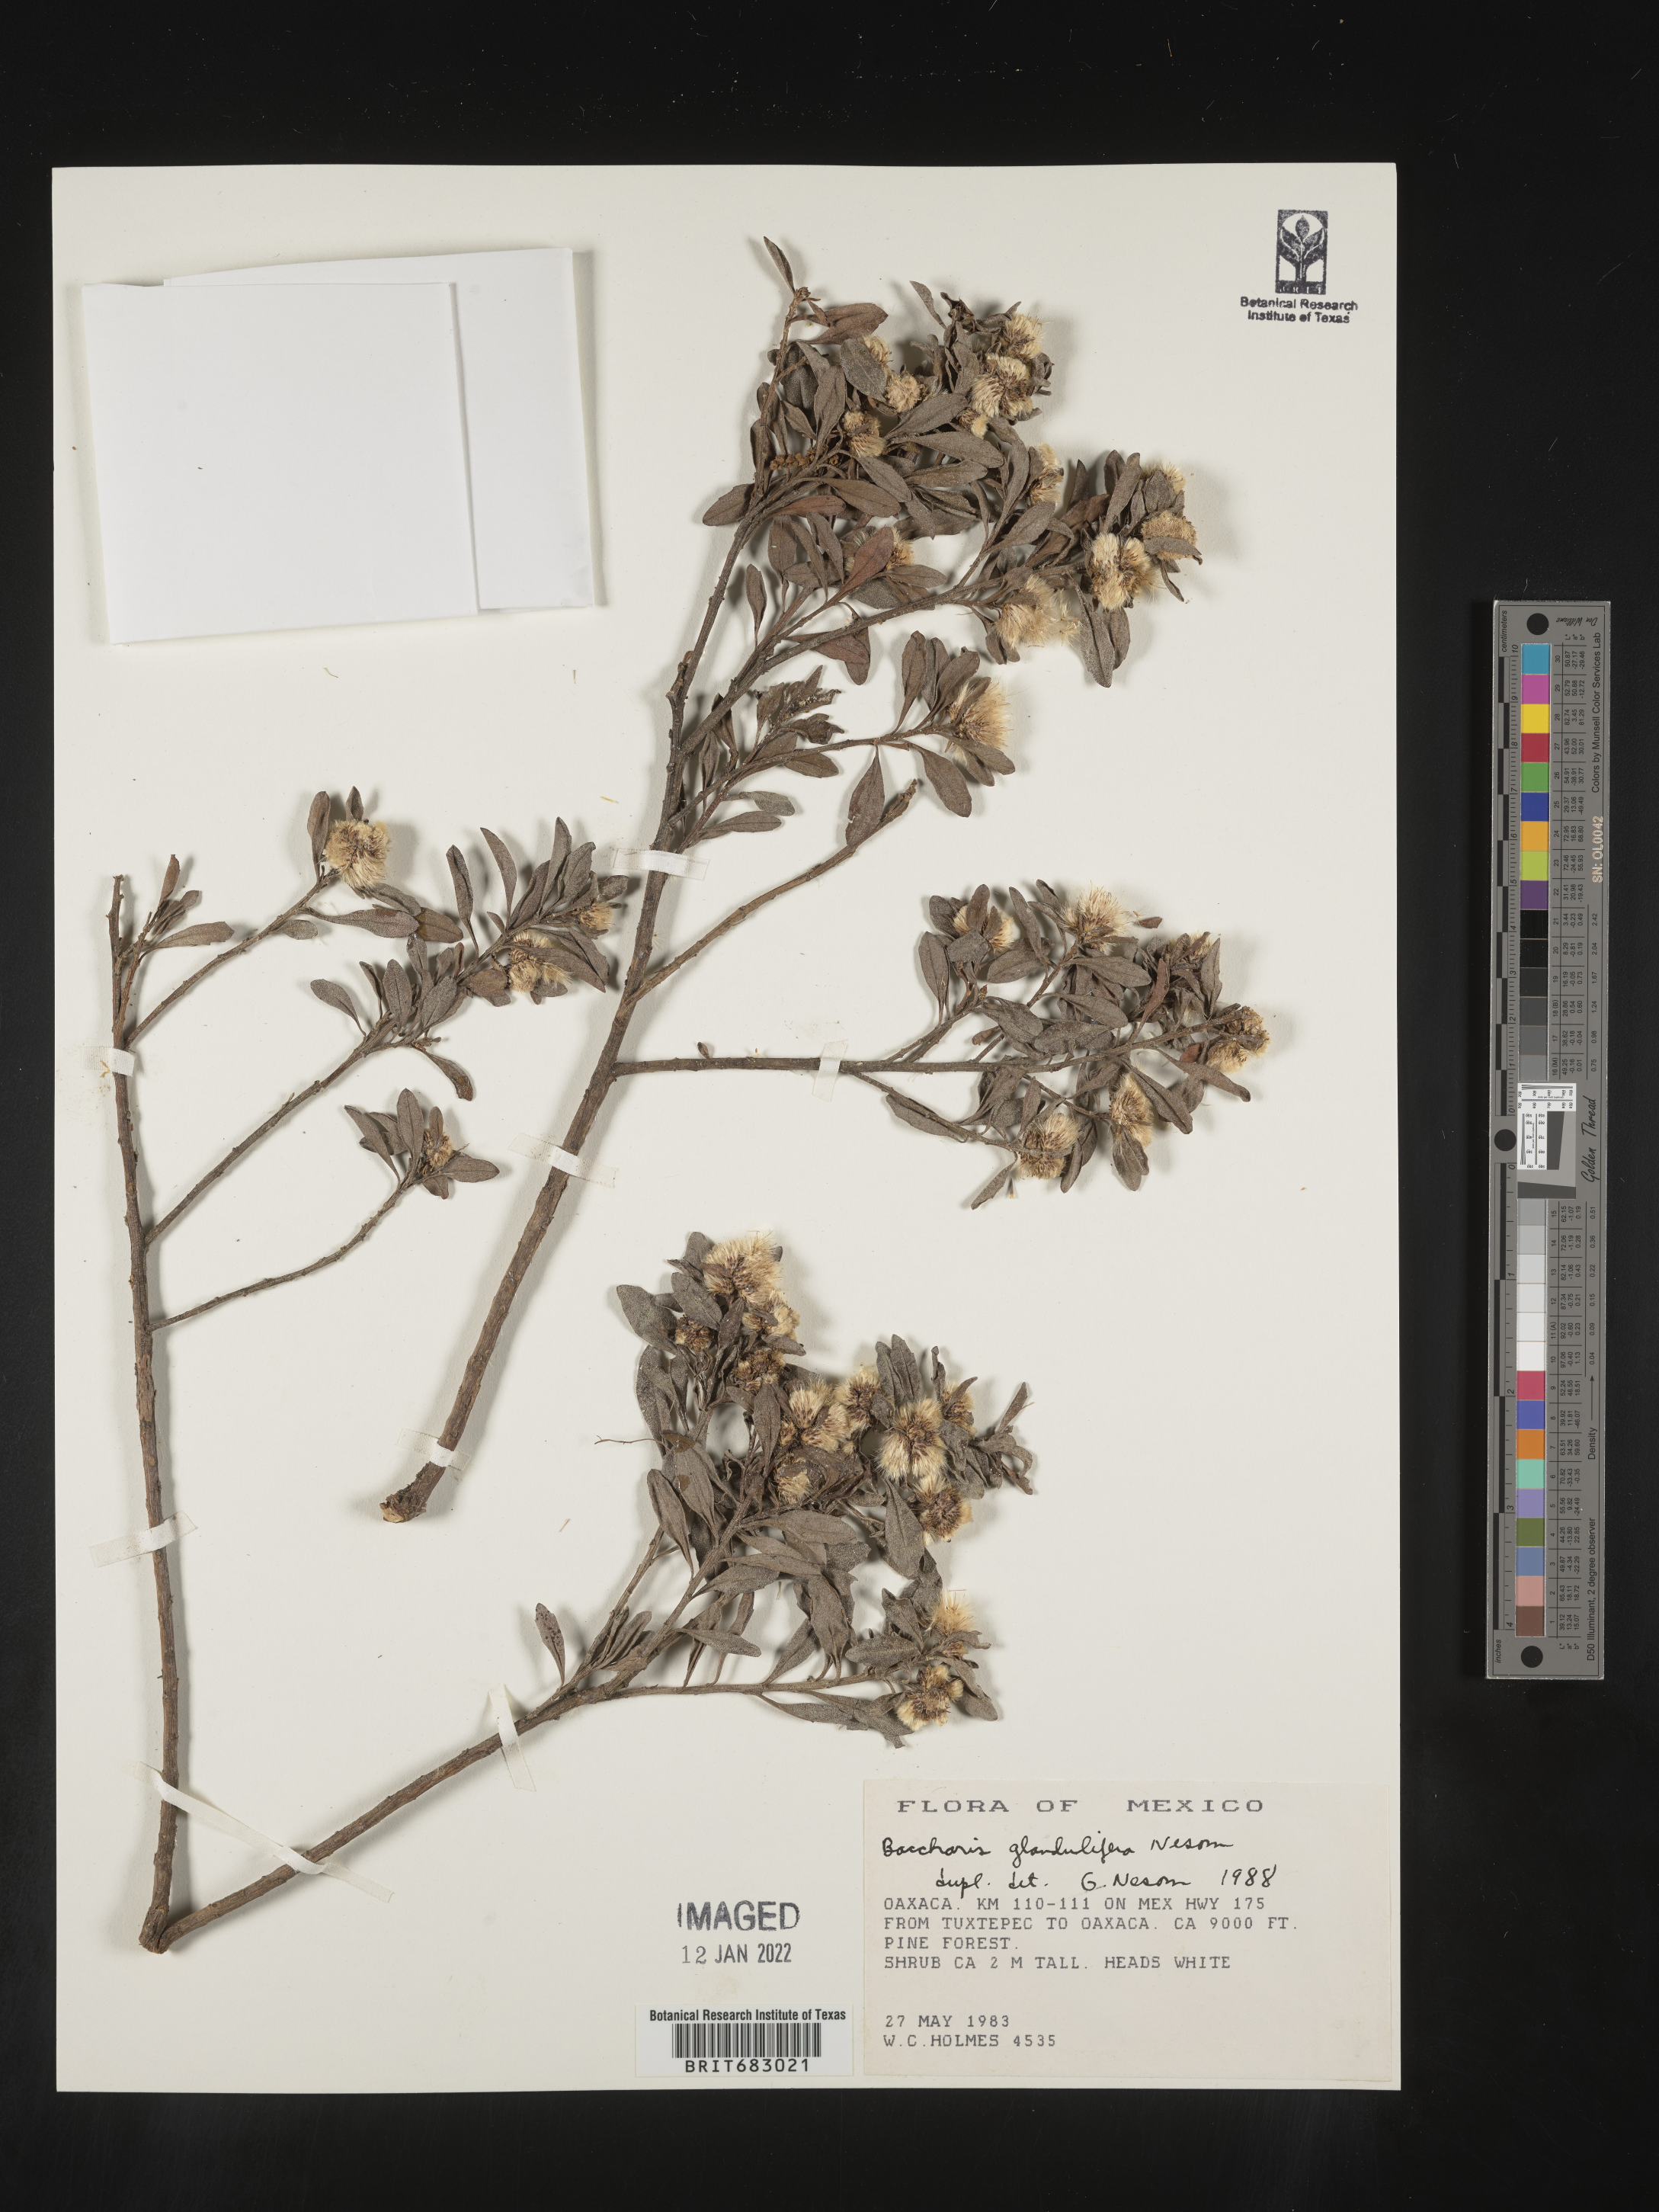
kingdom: Plantae
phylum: Tracheophyta
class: Magnoliopsida
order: Asterales
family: Asteraceae
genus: Baccharis
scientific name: Baccharis heterophylla
